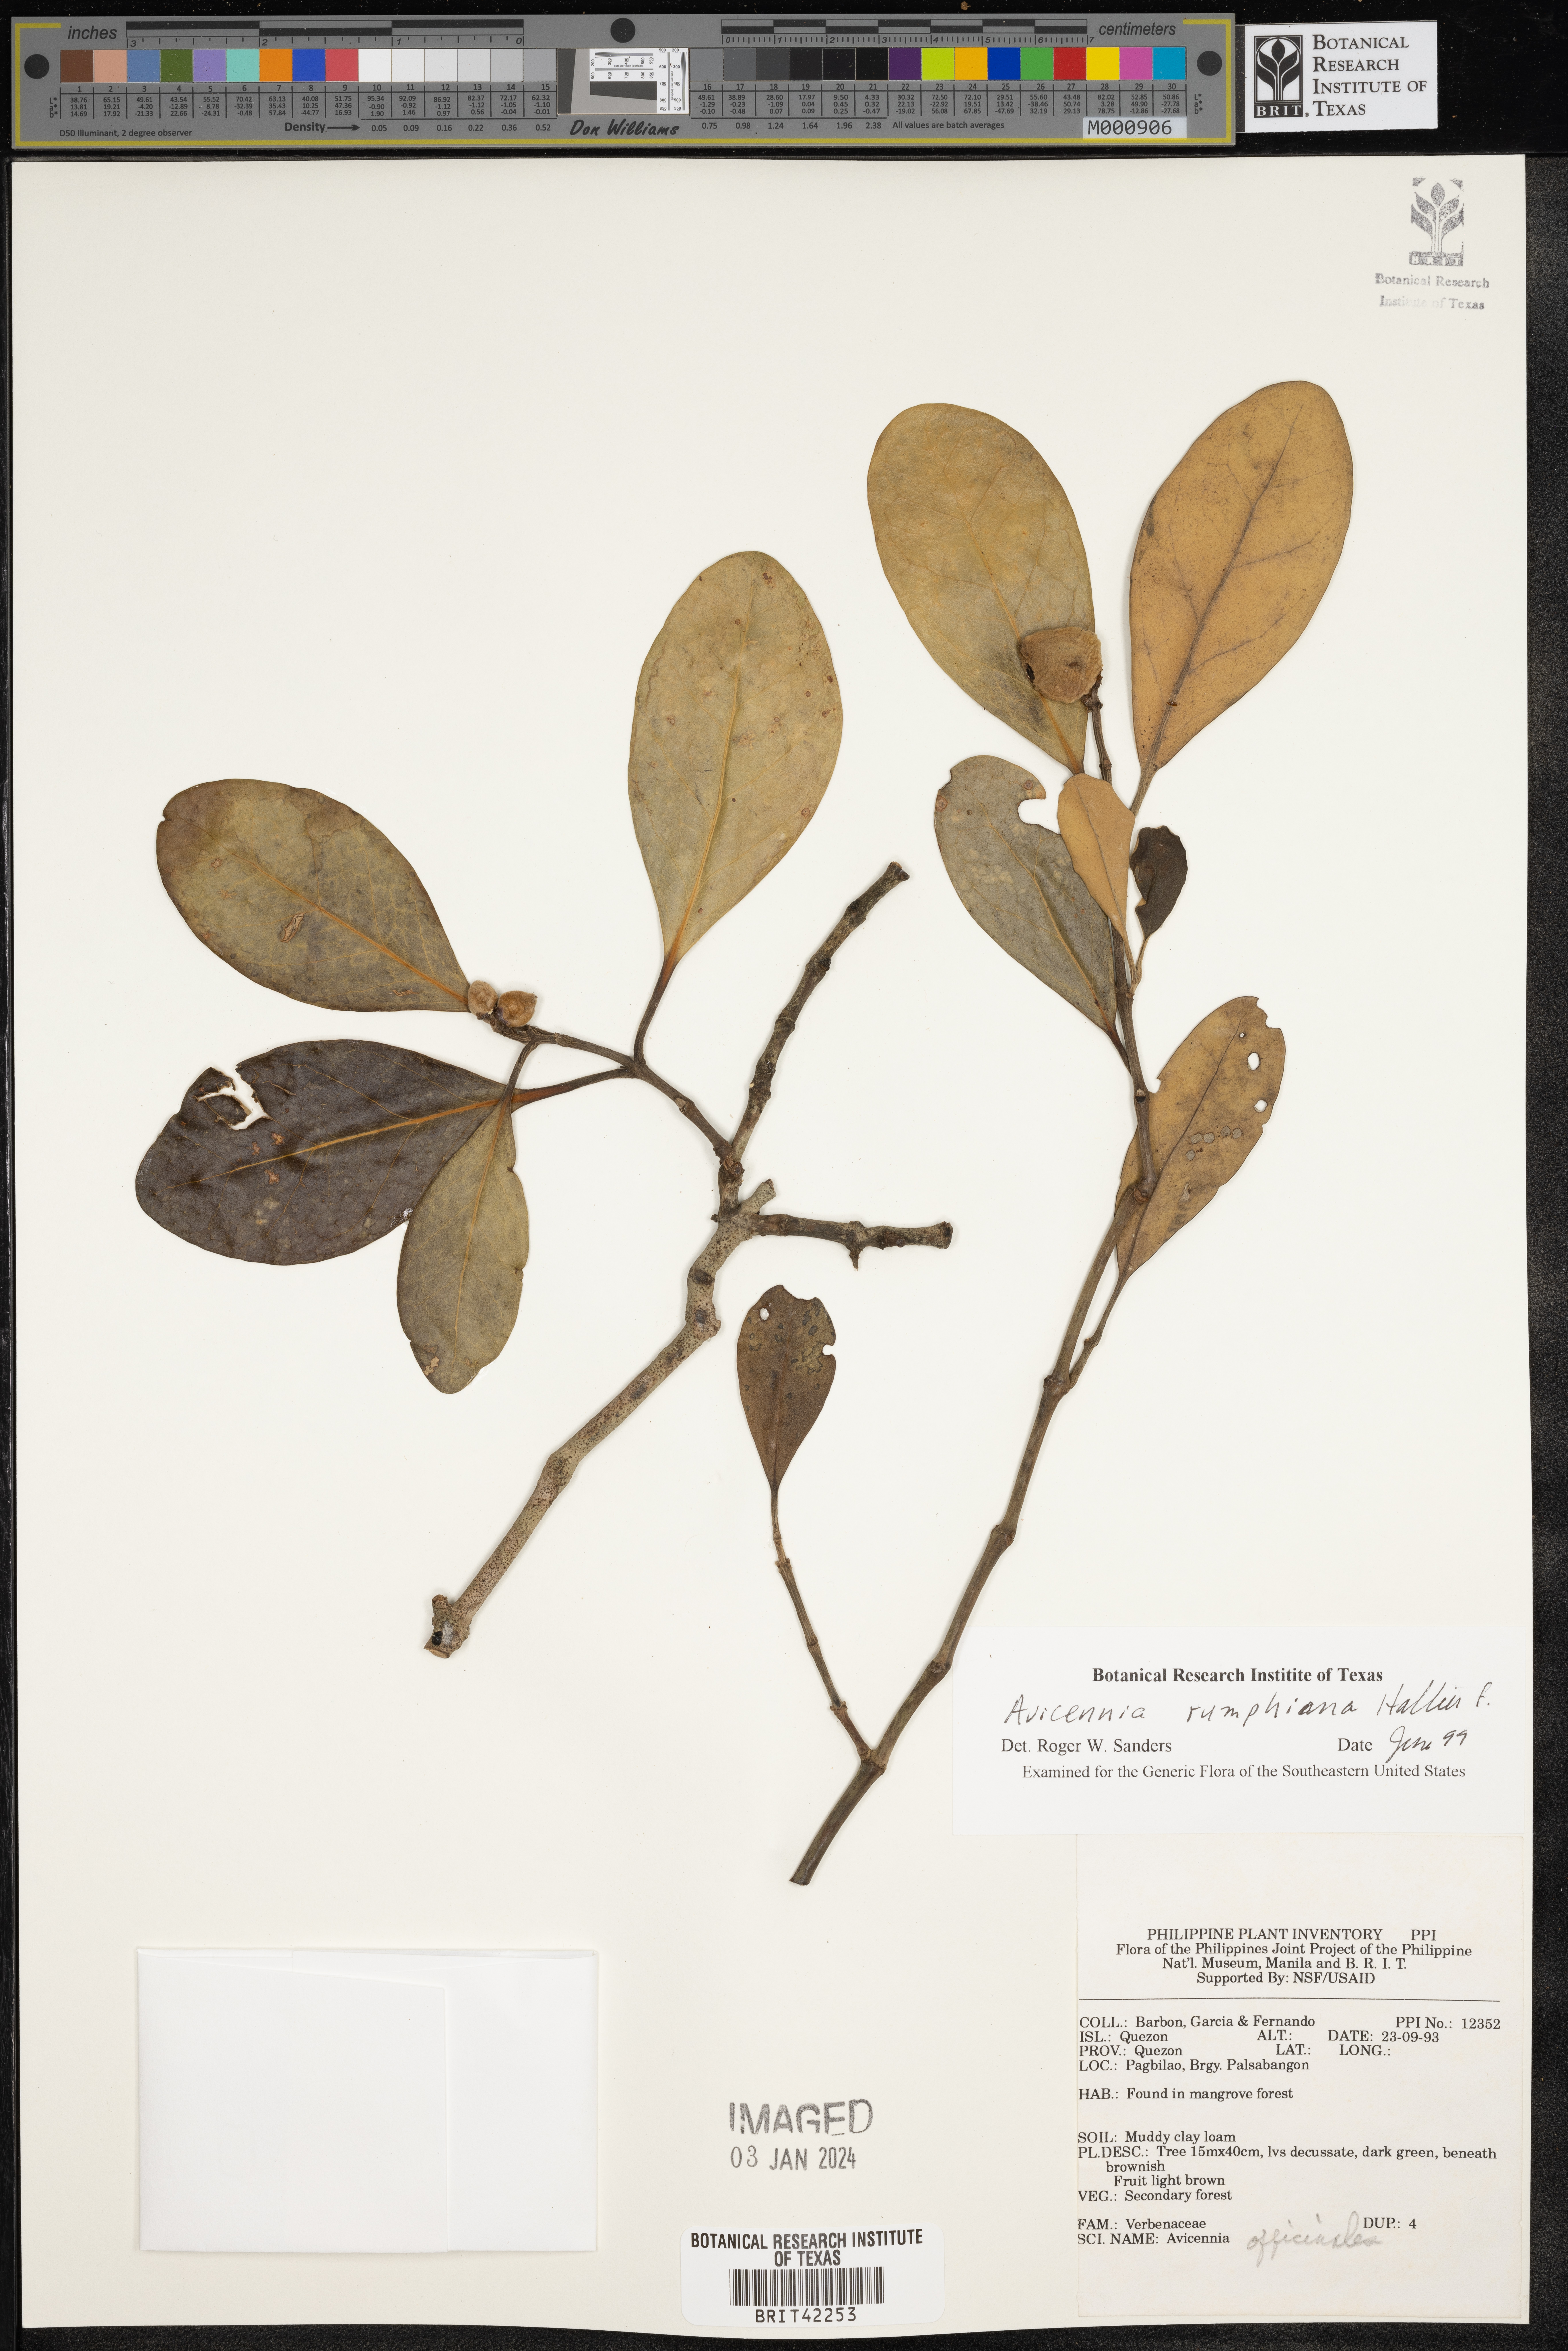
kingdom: Plantae
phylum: Tracheophyta
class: Magnoliopsida
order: Lamiales
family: Acanthaceae
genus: Avicennia
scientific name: Avicennia marina
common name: Gray mangrove
